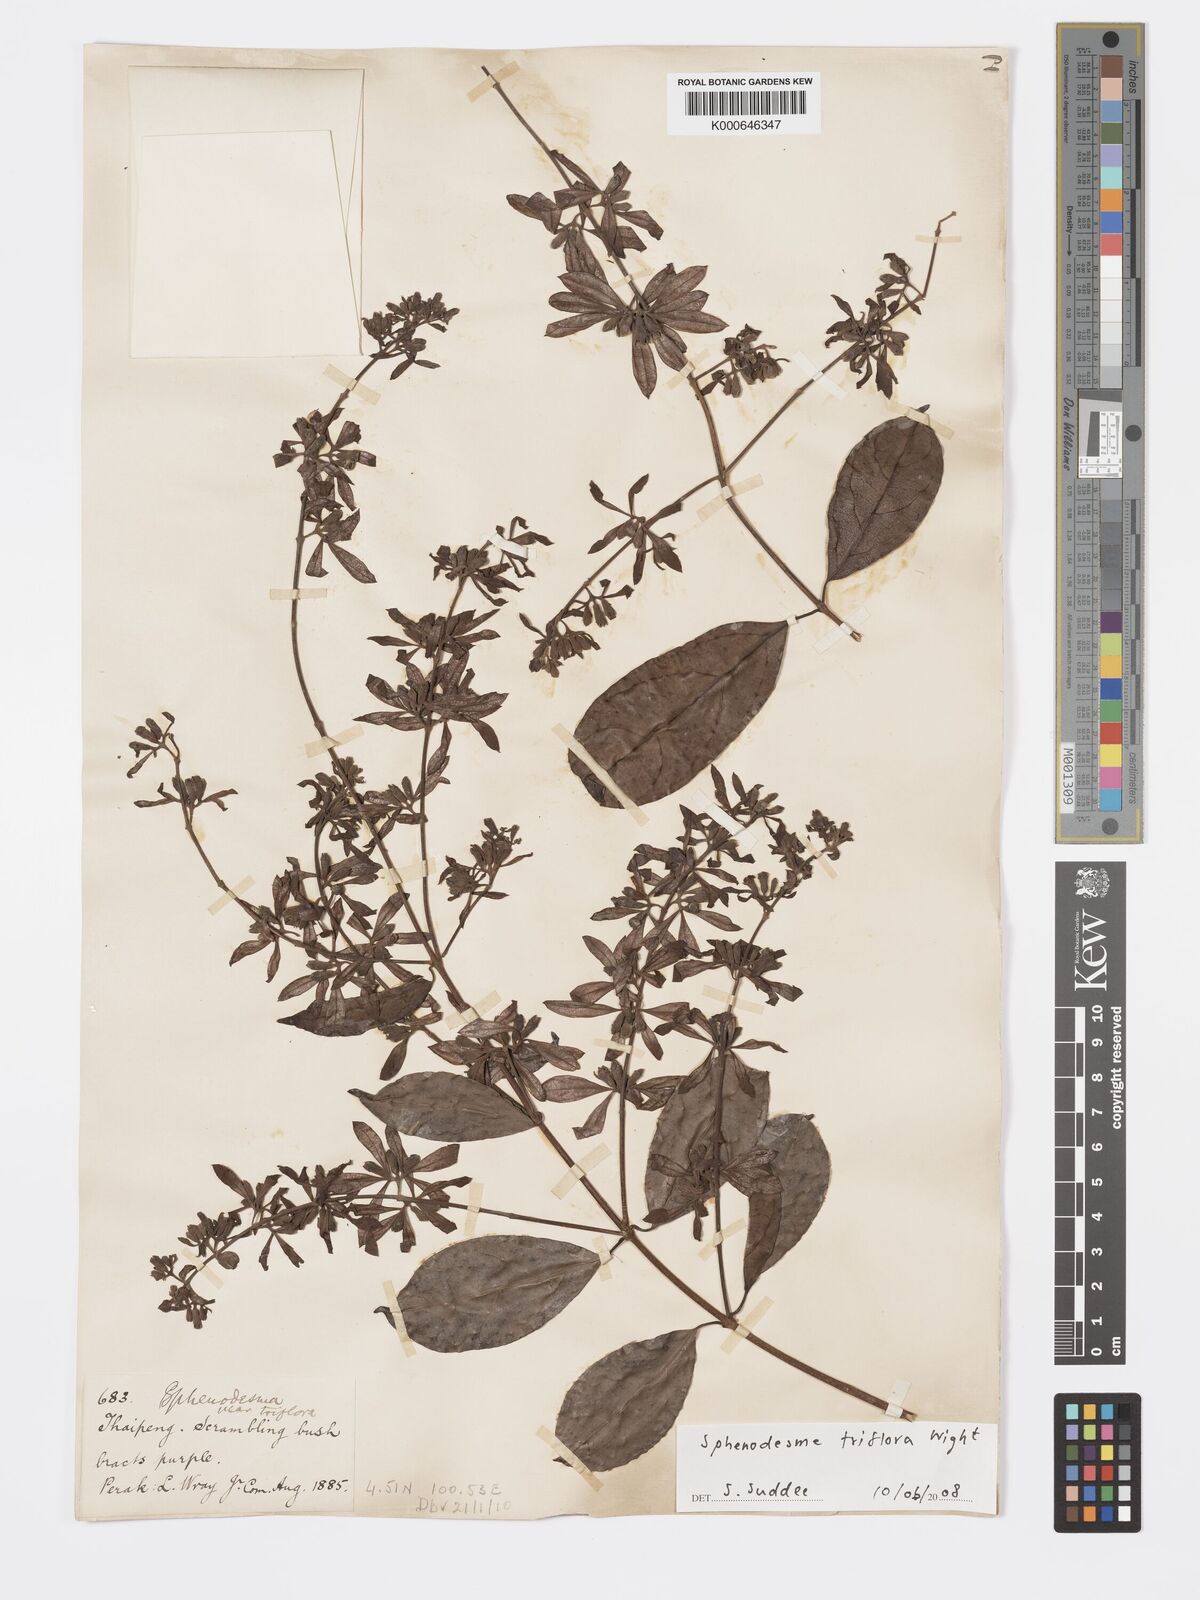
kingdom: Plantae
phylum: Tracheophyta
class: Magnoliopsida
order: Lamiales
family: Lamiaceae
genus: Sphenodesme
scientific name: Sphenodesme
